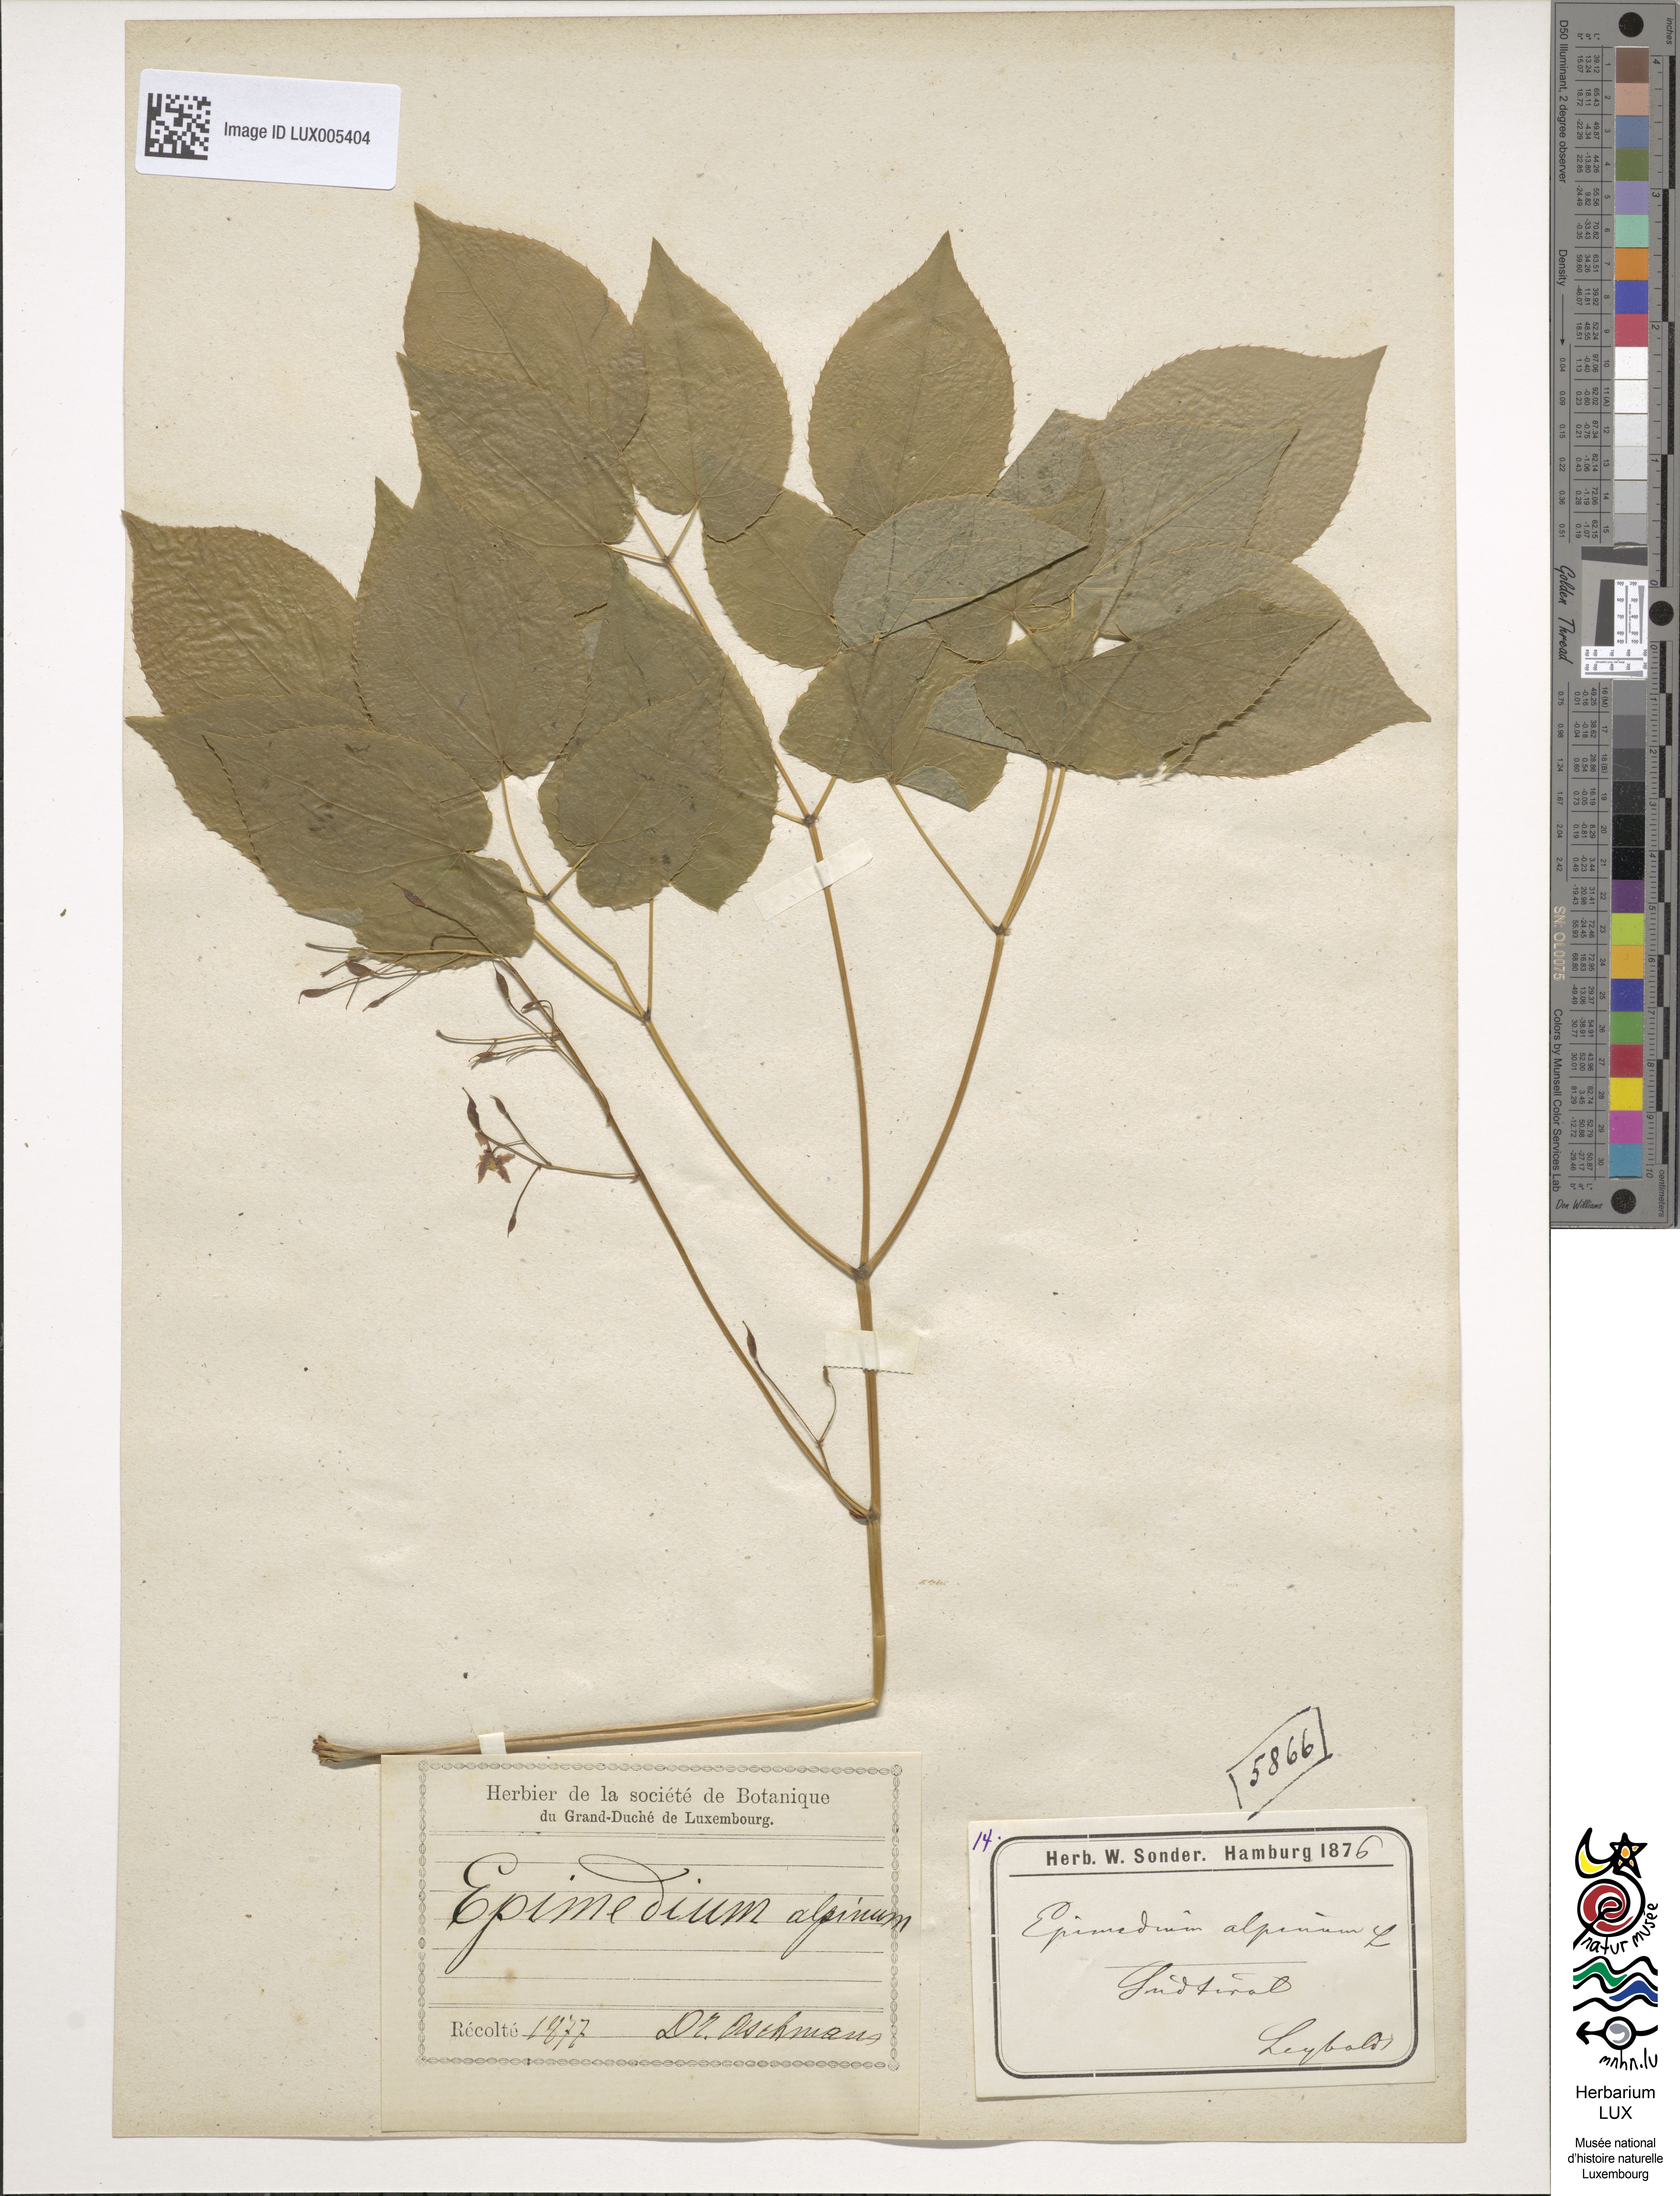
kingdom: Plantae
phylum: Tracheophyta
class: Magnoliopsida
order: Ranunculales
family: Berberidaceae
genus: Epimedium
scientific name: Epimedium alpinum
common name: Barrenwort
